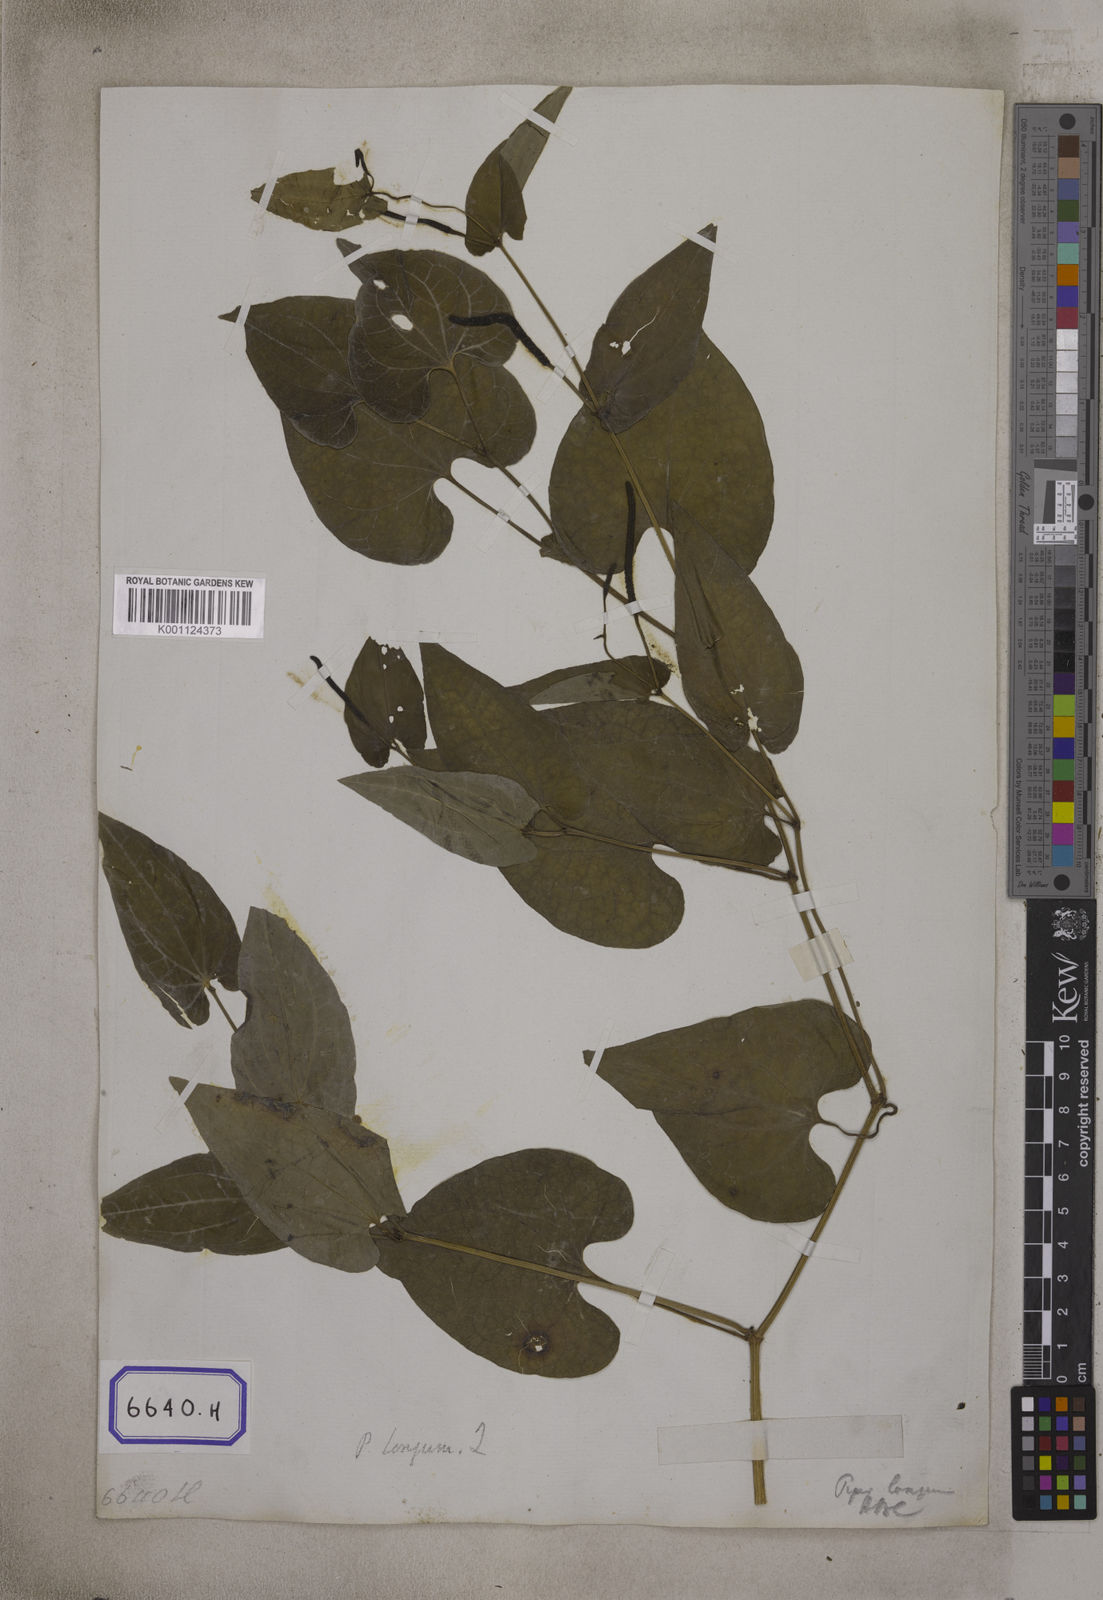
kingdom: Plantae
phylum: Tracheophyta
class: Magnoliopsida
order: Piperales
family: Piperaceae
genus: Piper
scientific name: Piper longum
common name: Long pepper
